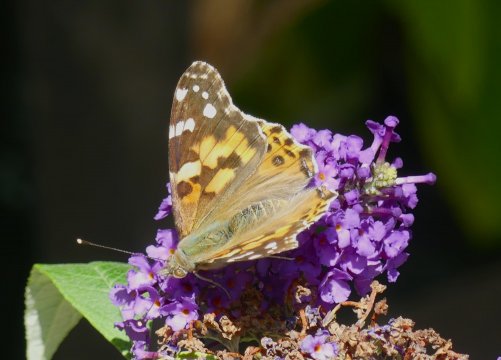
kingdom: Animalia
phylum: Arthropoda
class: Insecta
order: Lepidoptera
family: Nymphalidae
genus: Vanessa
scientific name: Vanessa cardui
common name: Painted Lady
